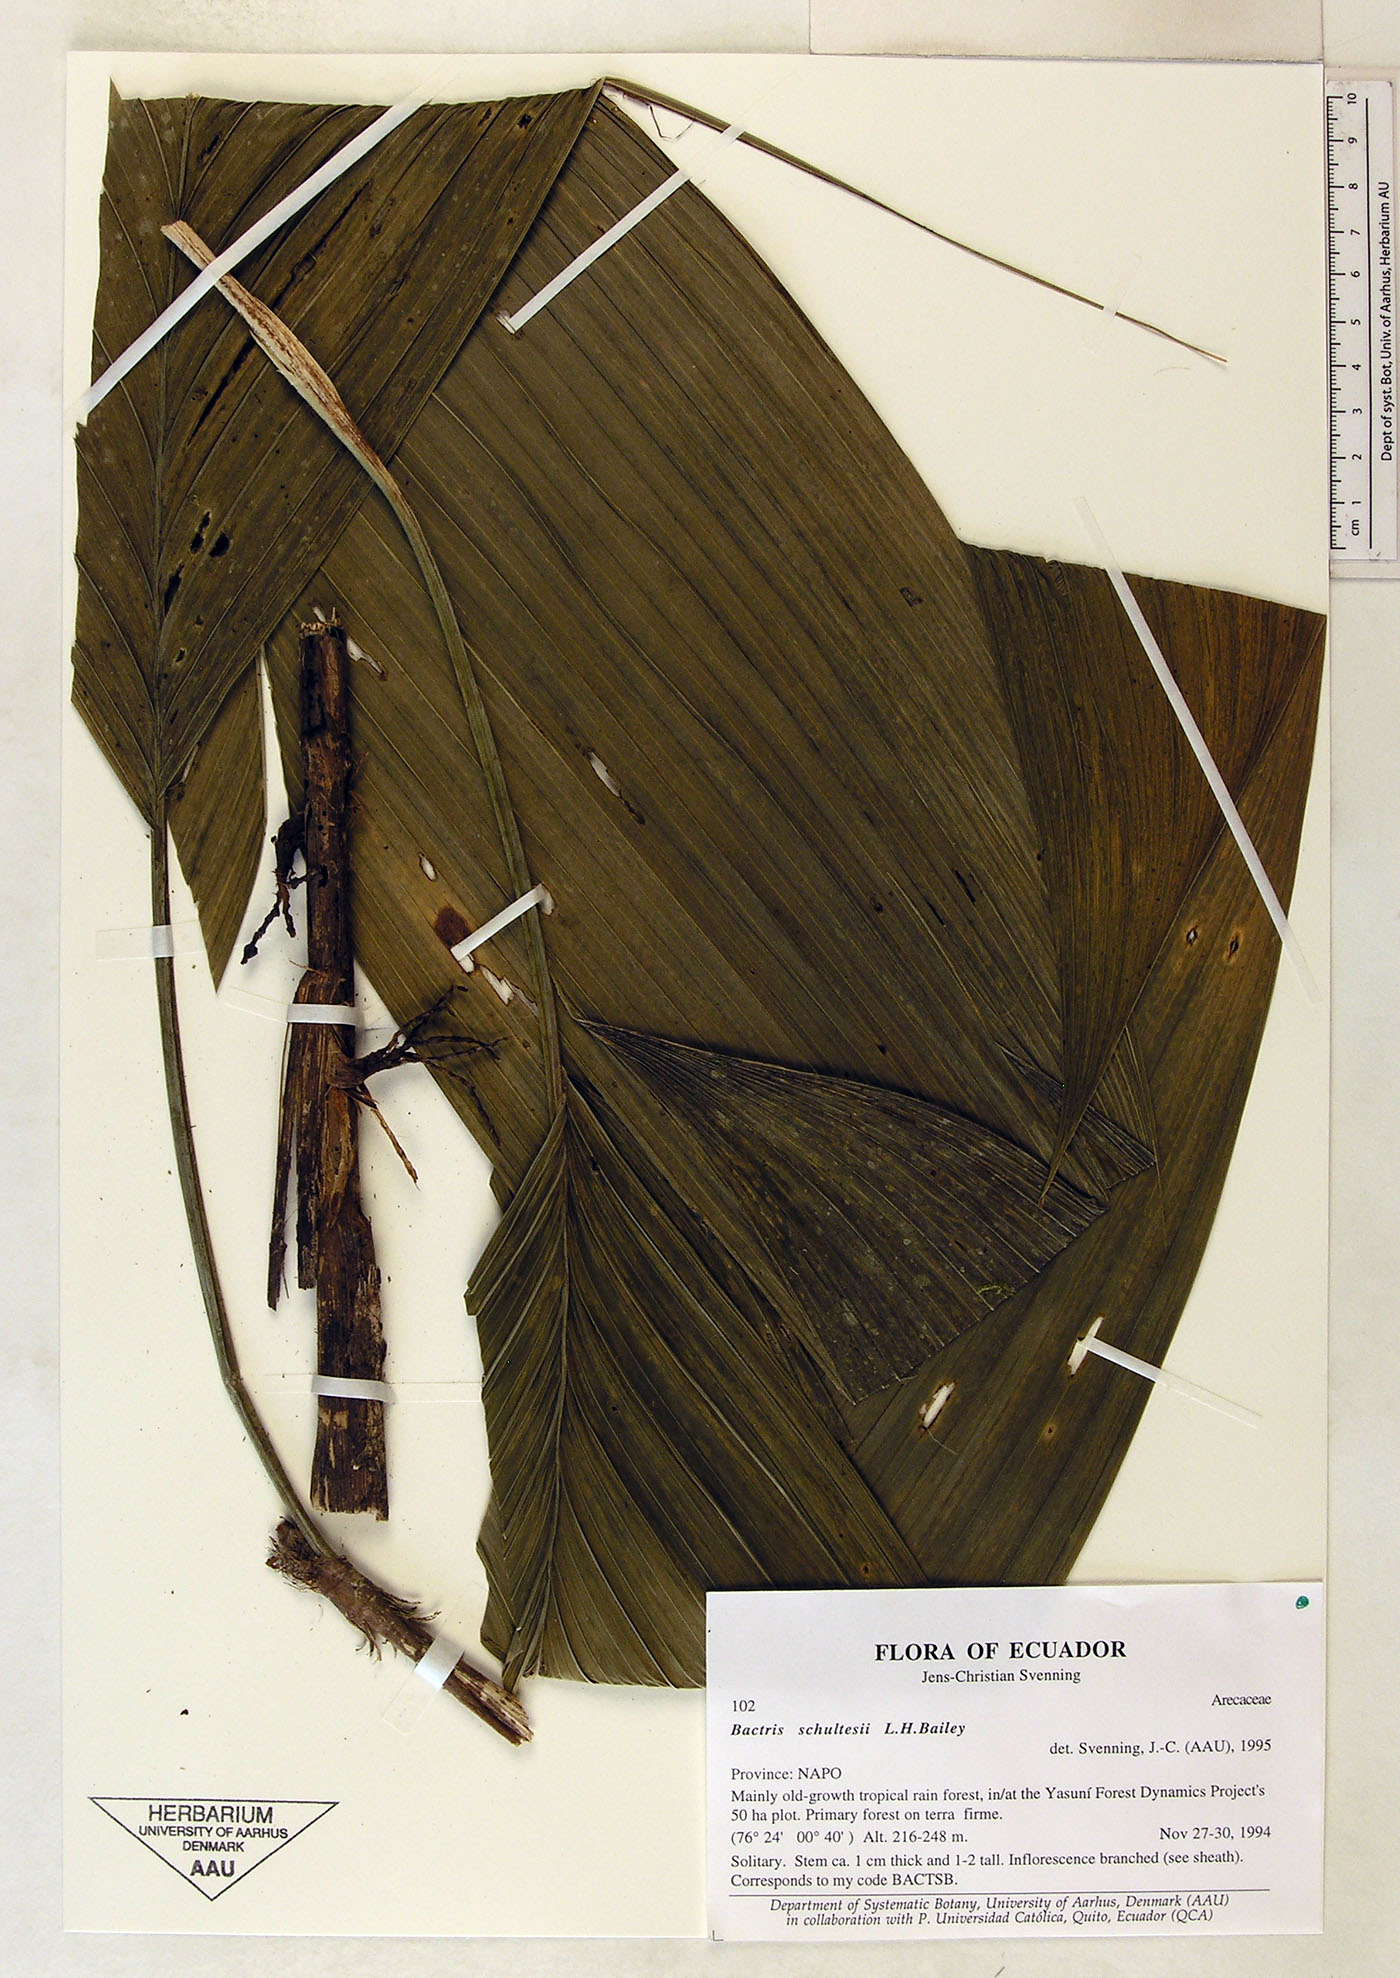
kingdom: Plantae
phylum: Tracheophyta
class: Liliopsida
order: Arecales
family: Arecaceae
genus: Bactris
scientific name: Bactris schultesii
